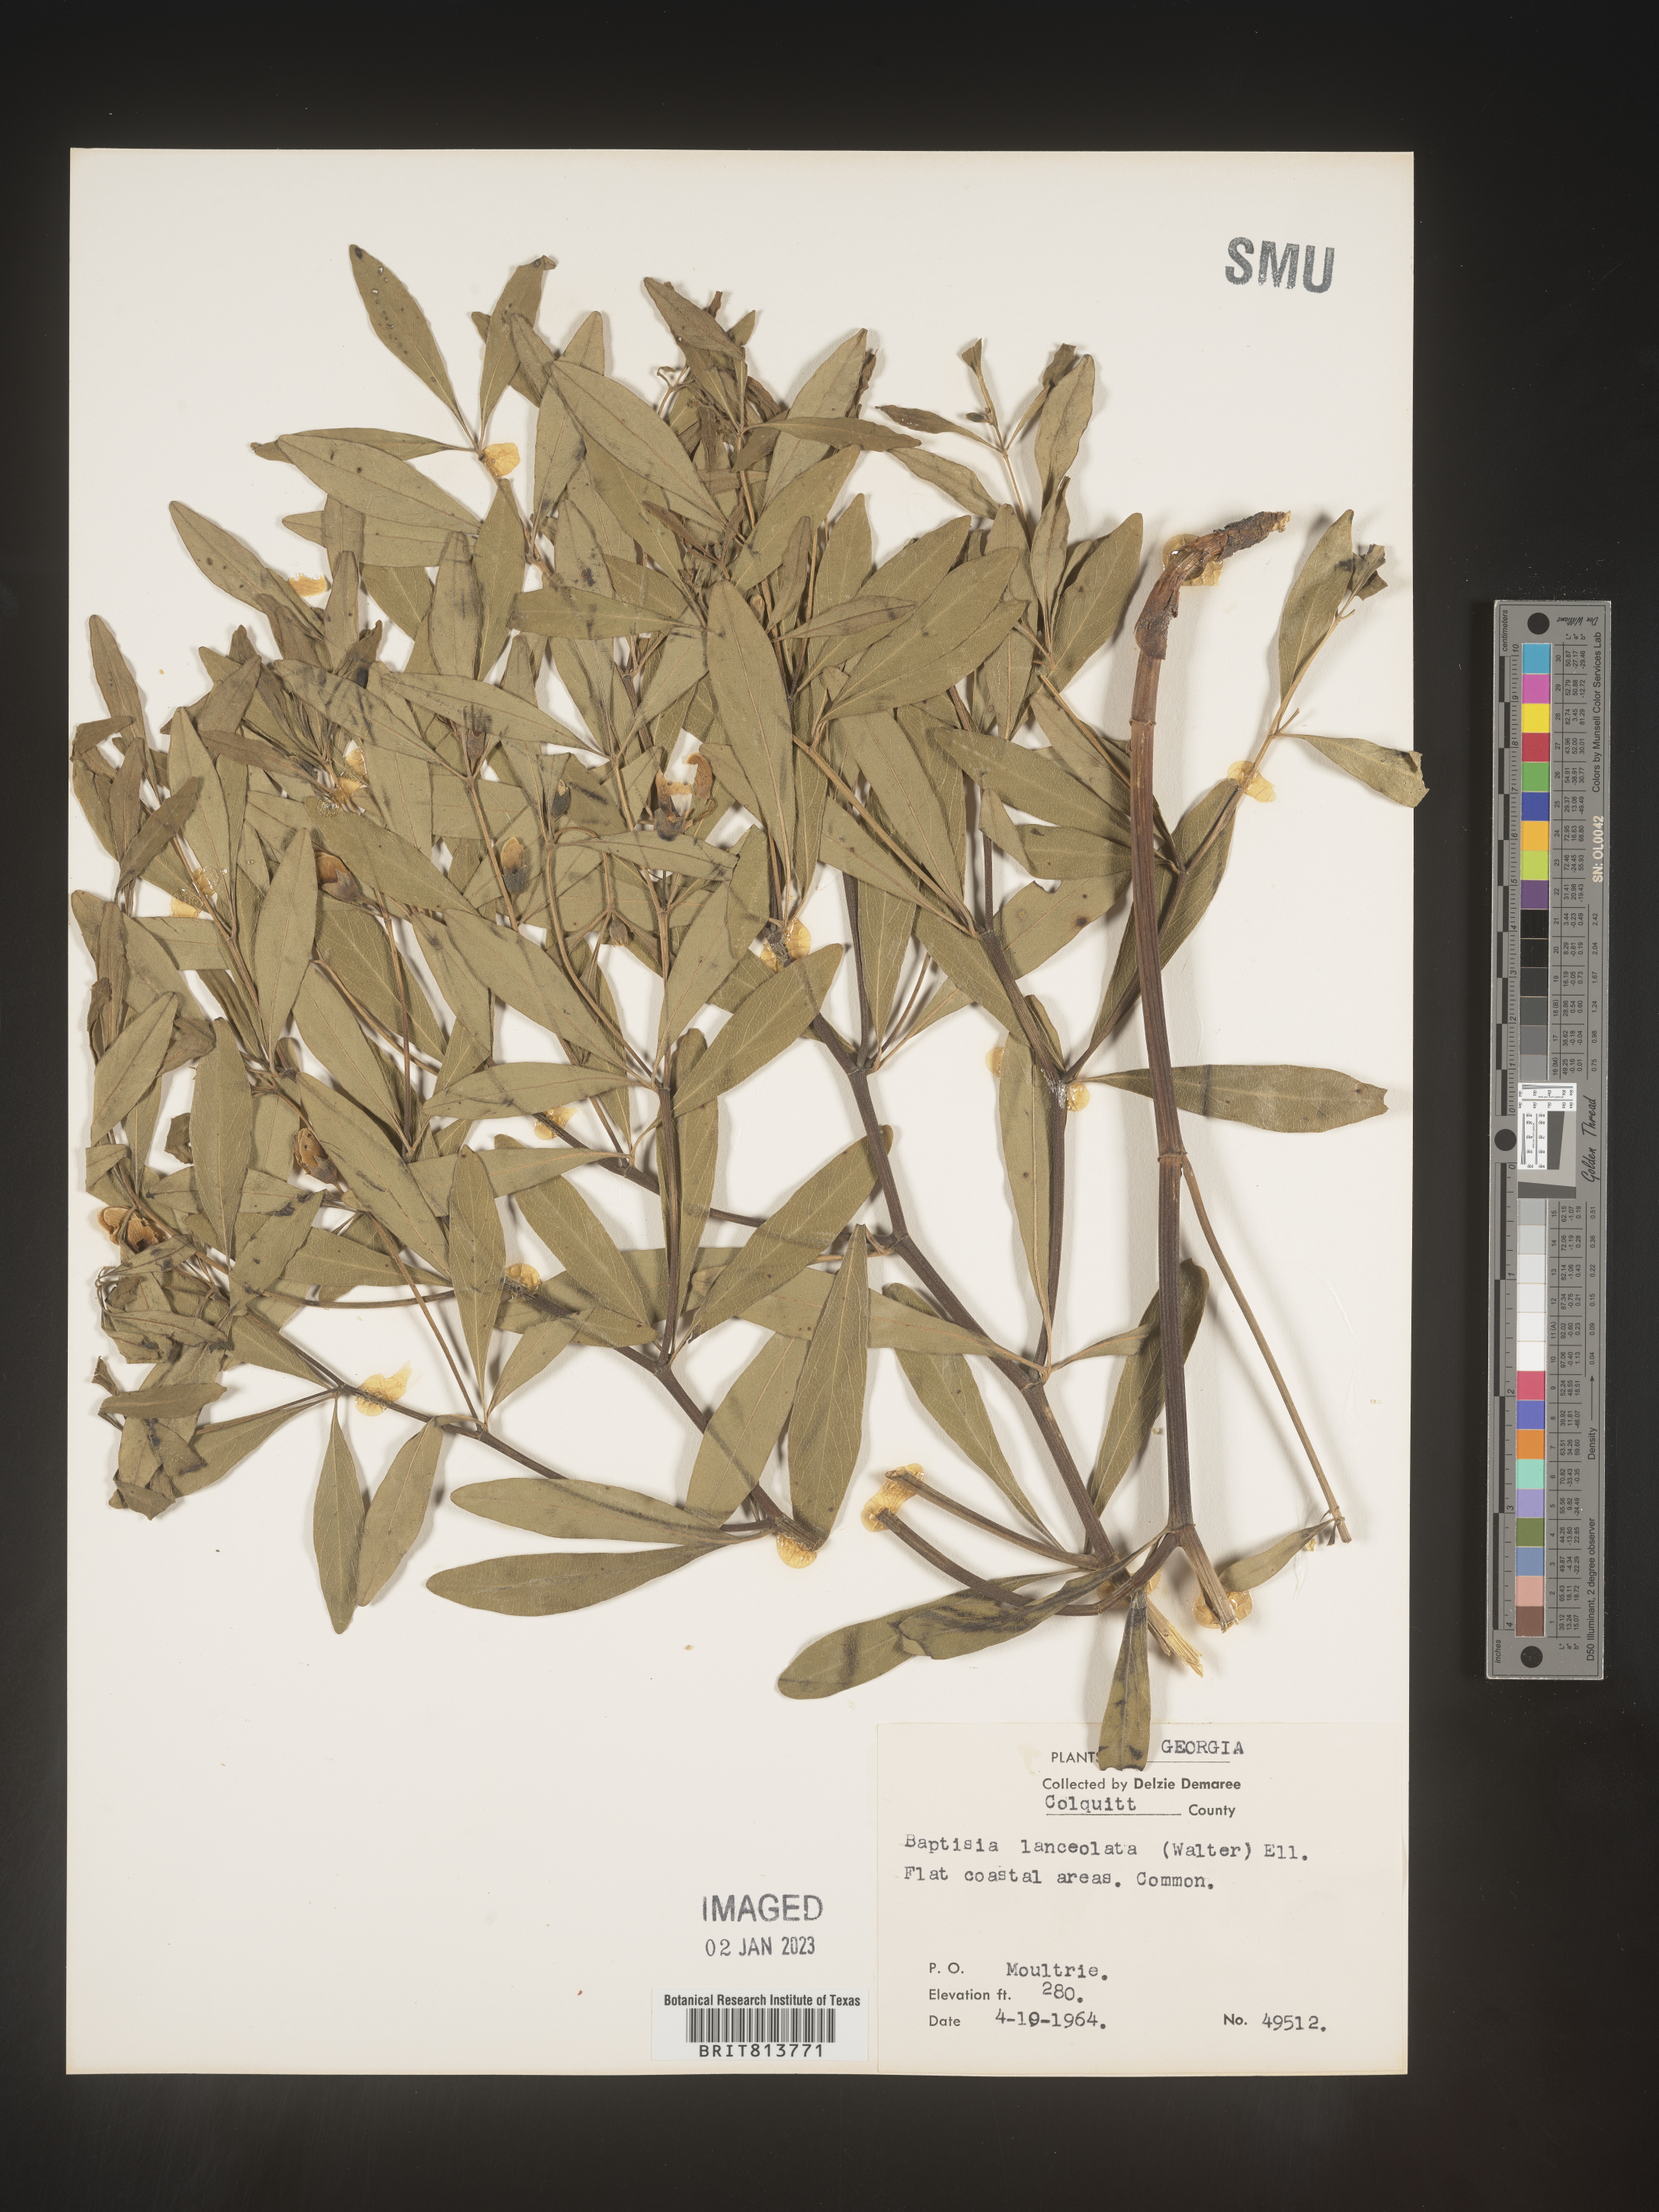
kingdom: Plantae
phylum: Tracheophyta
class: Magnoliopsida
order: Fabales
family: Fabaceae
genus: Baptisia
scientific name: Baptisia lanceolata
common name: Gopherweed
